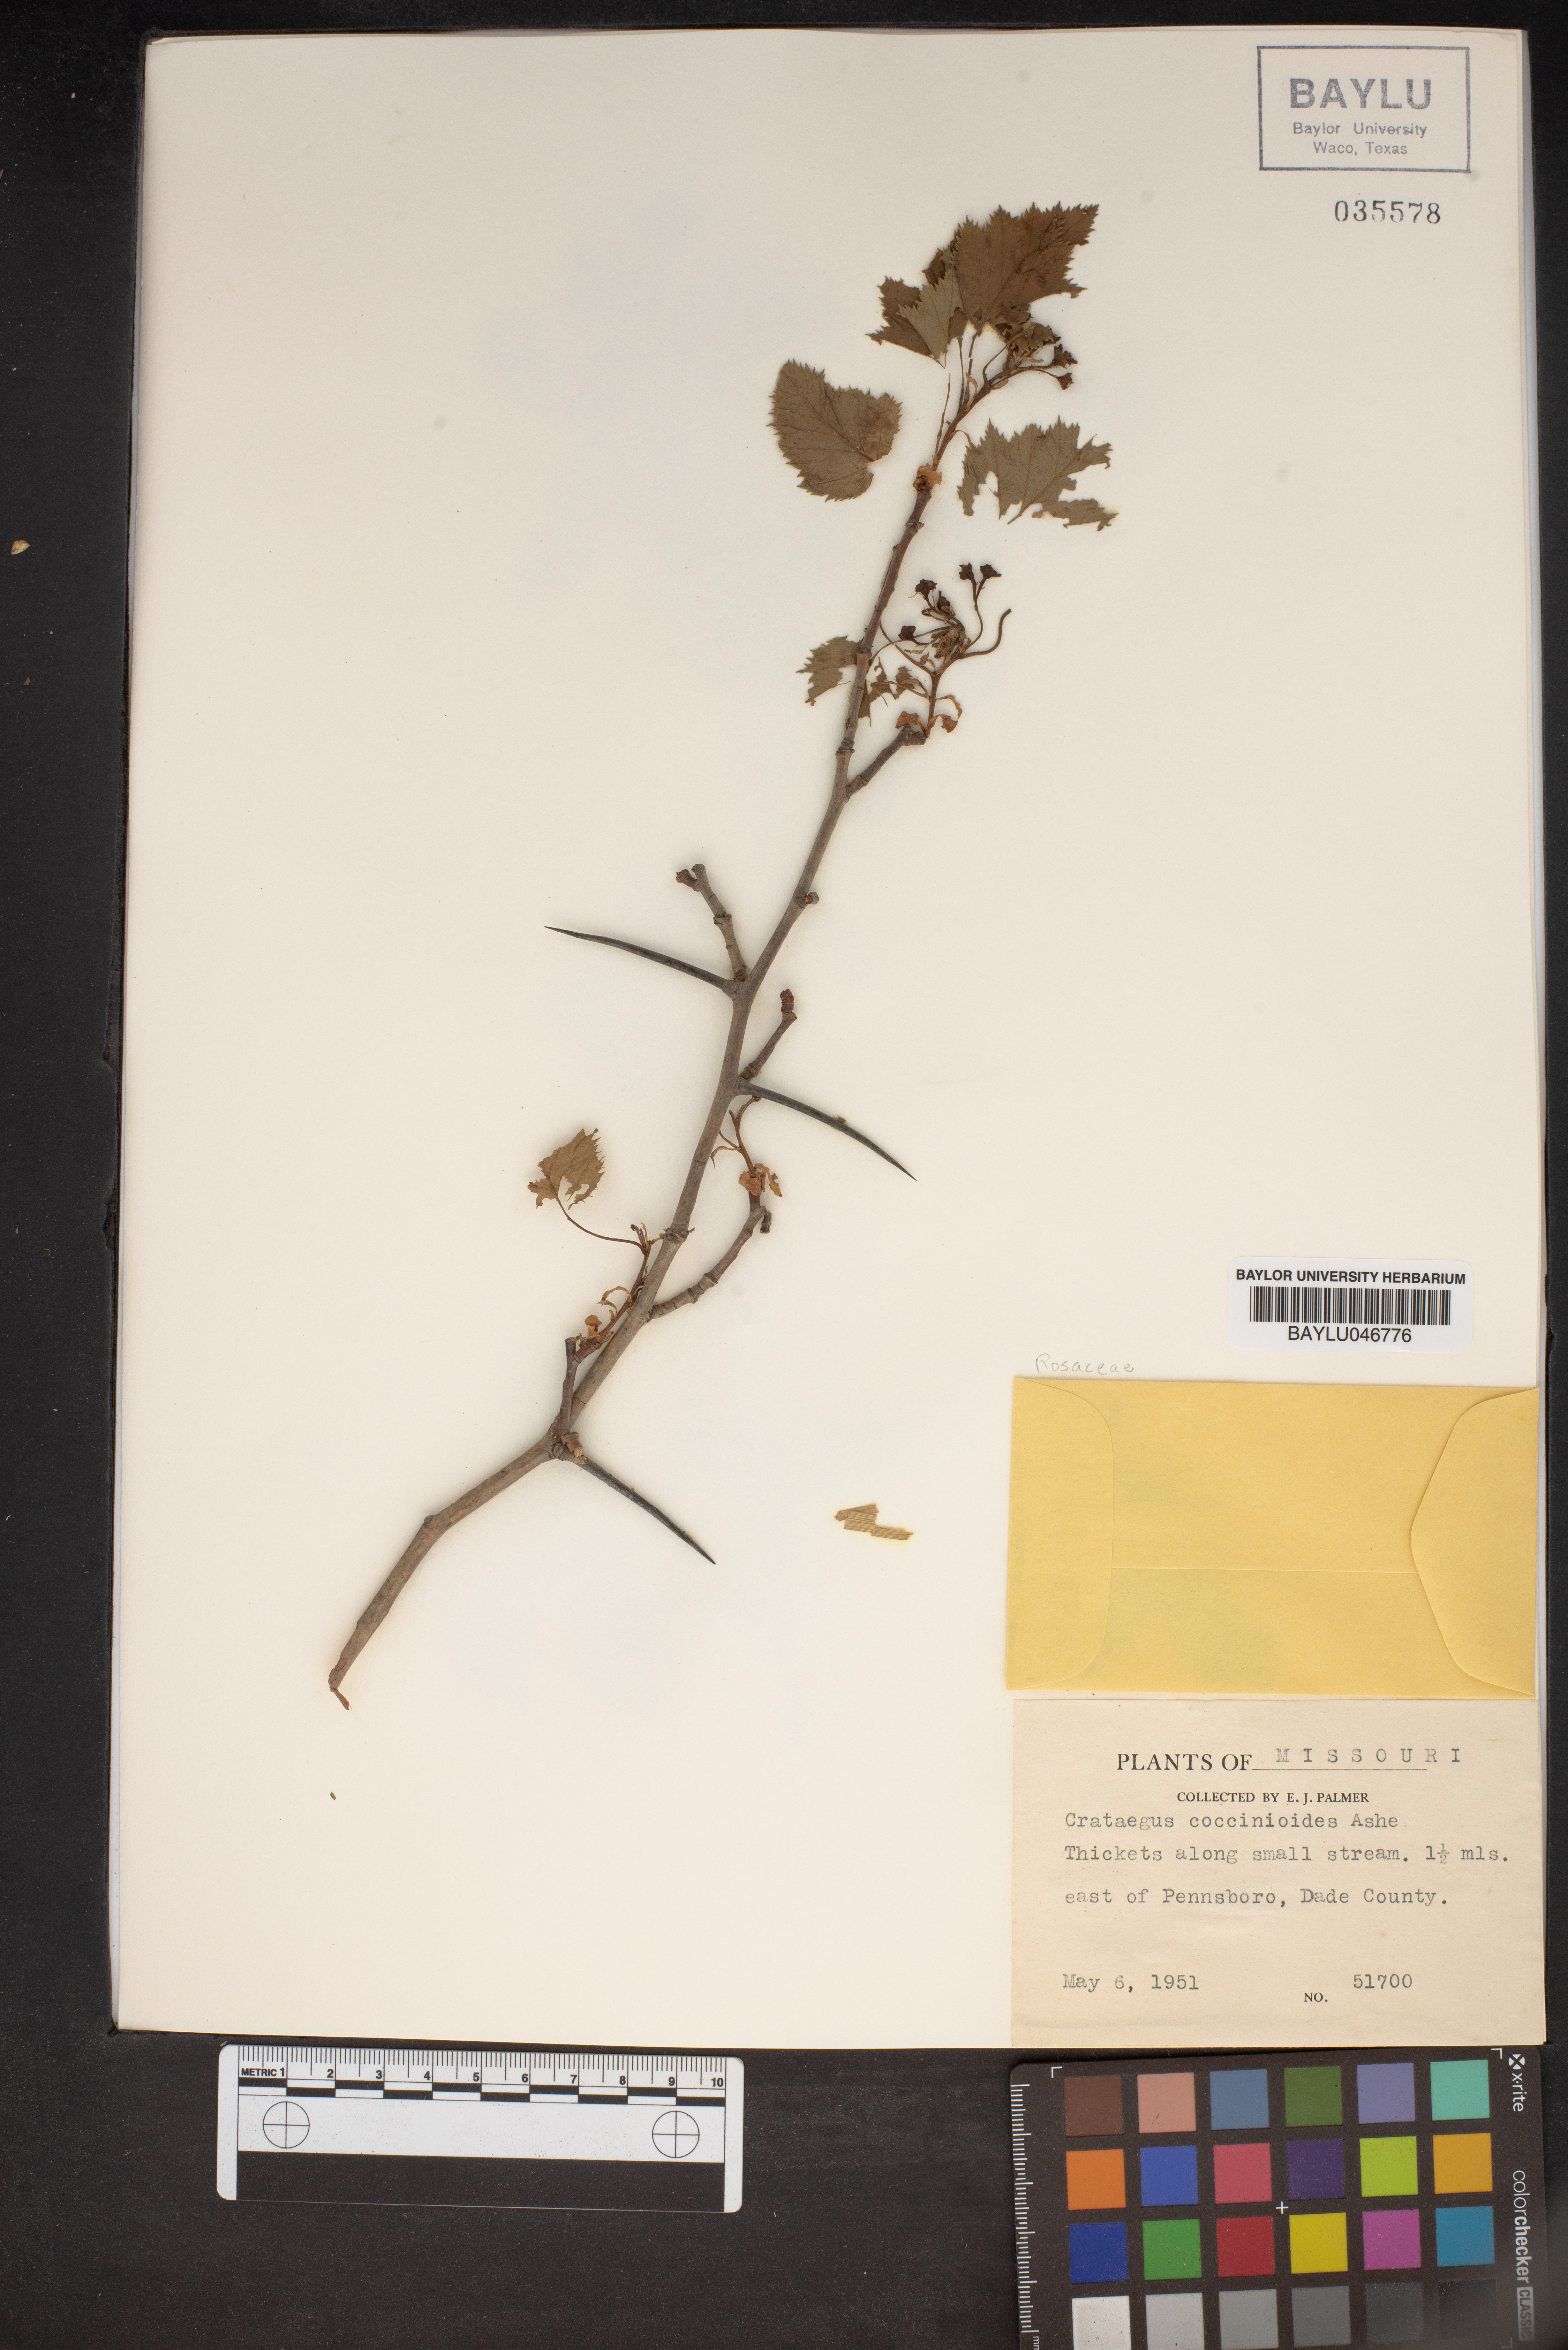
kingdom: Plantae
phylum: Tracheophyta
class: Magnoliopsida
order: Rosales
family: Rosaceae
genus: Crataegus
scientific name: Crataegus coccinioides
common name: Large-flowered cockspurthorn
